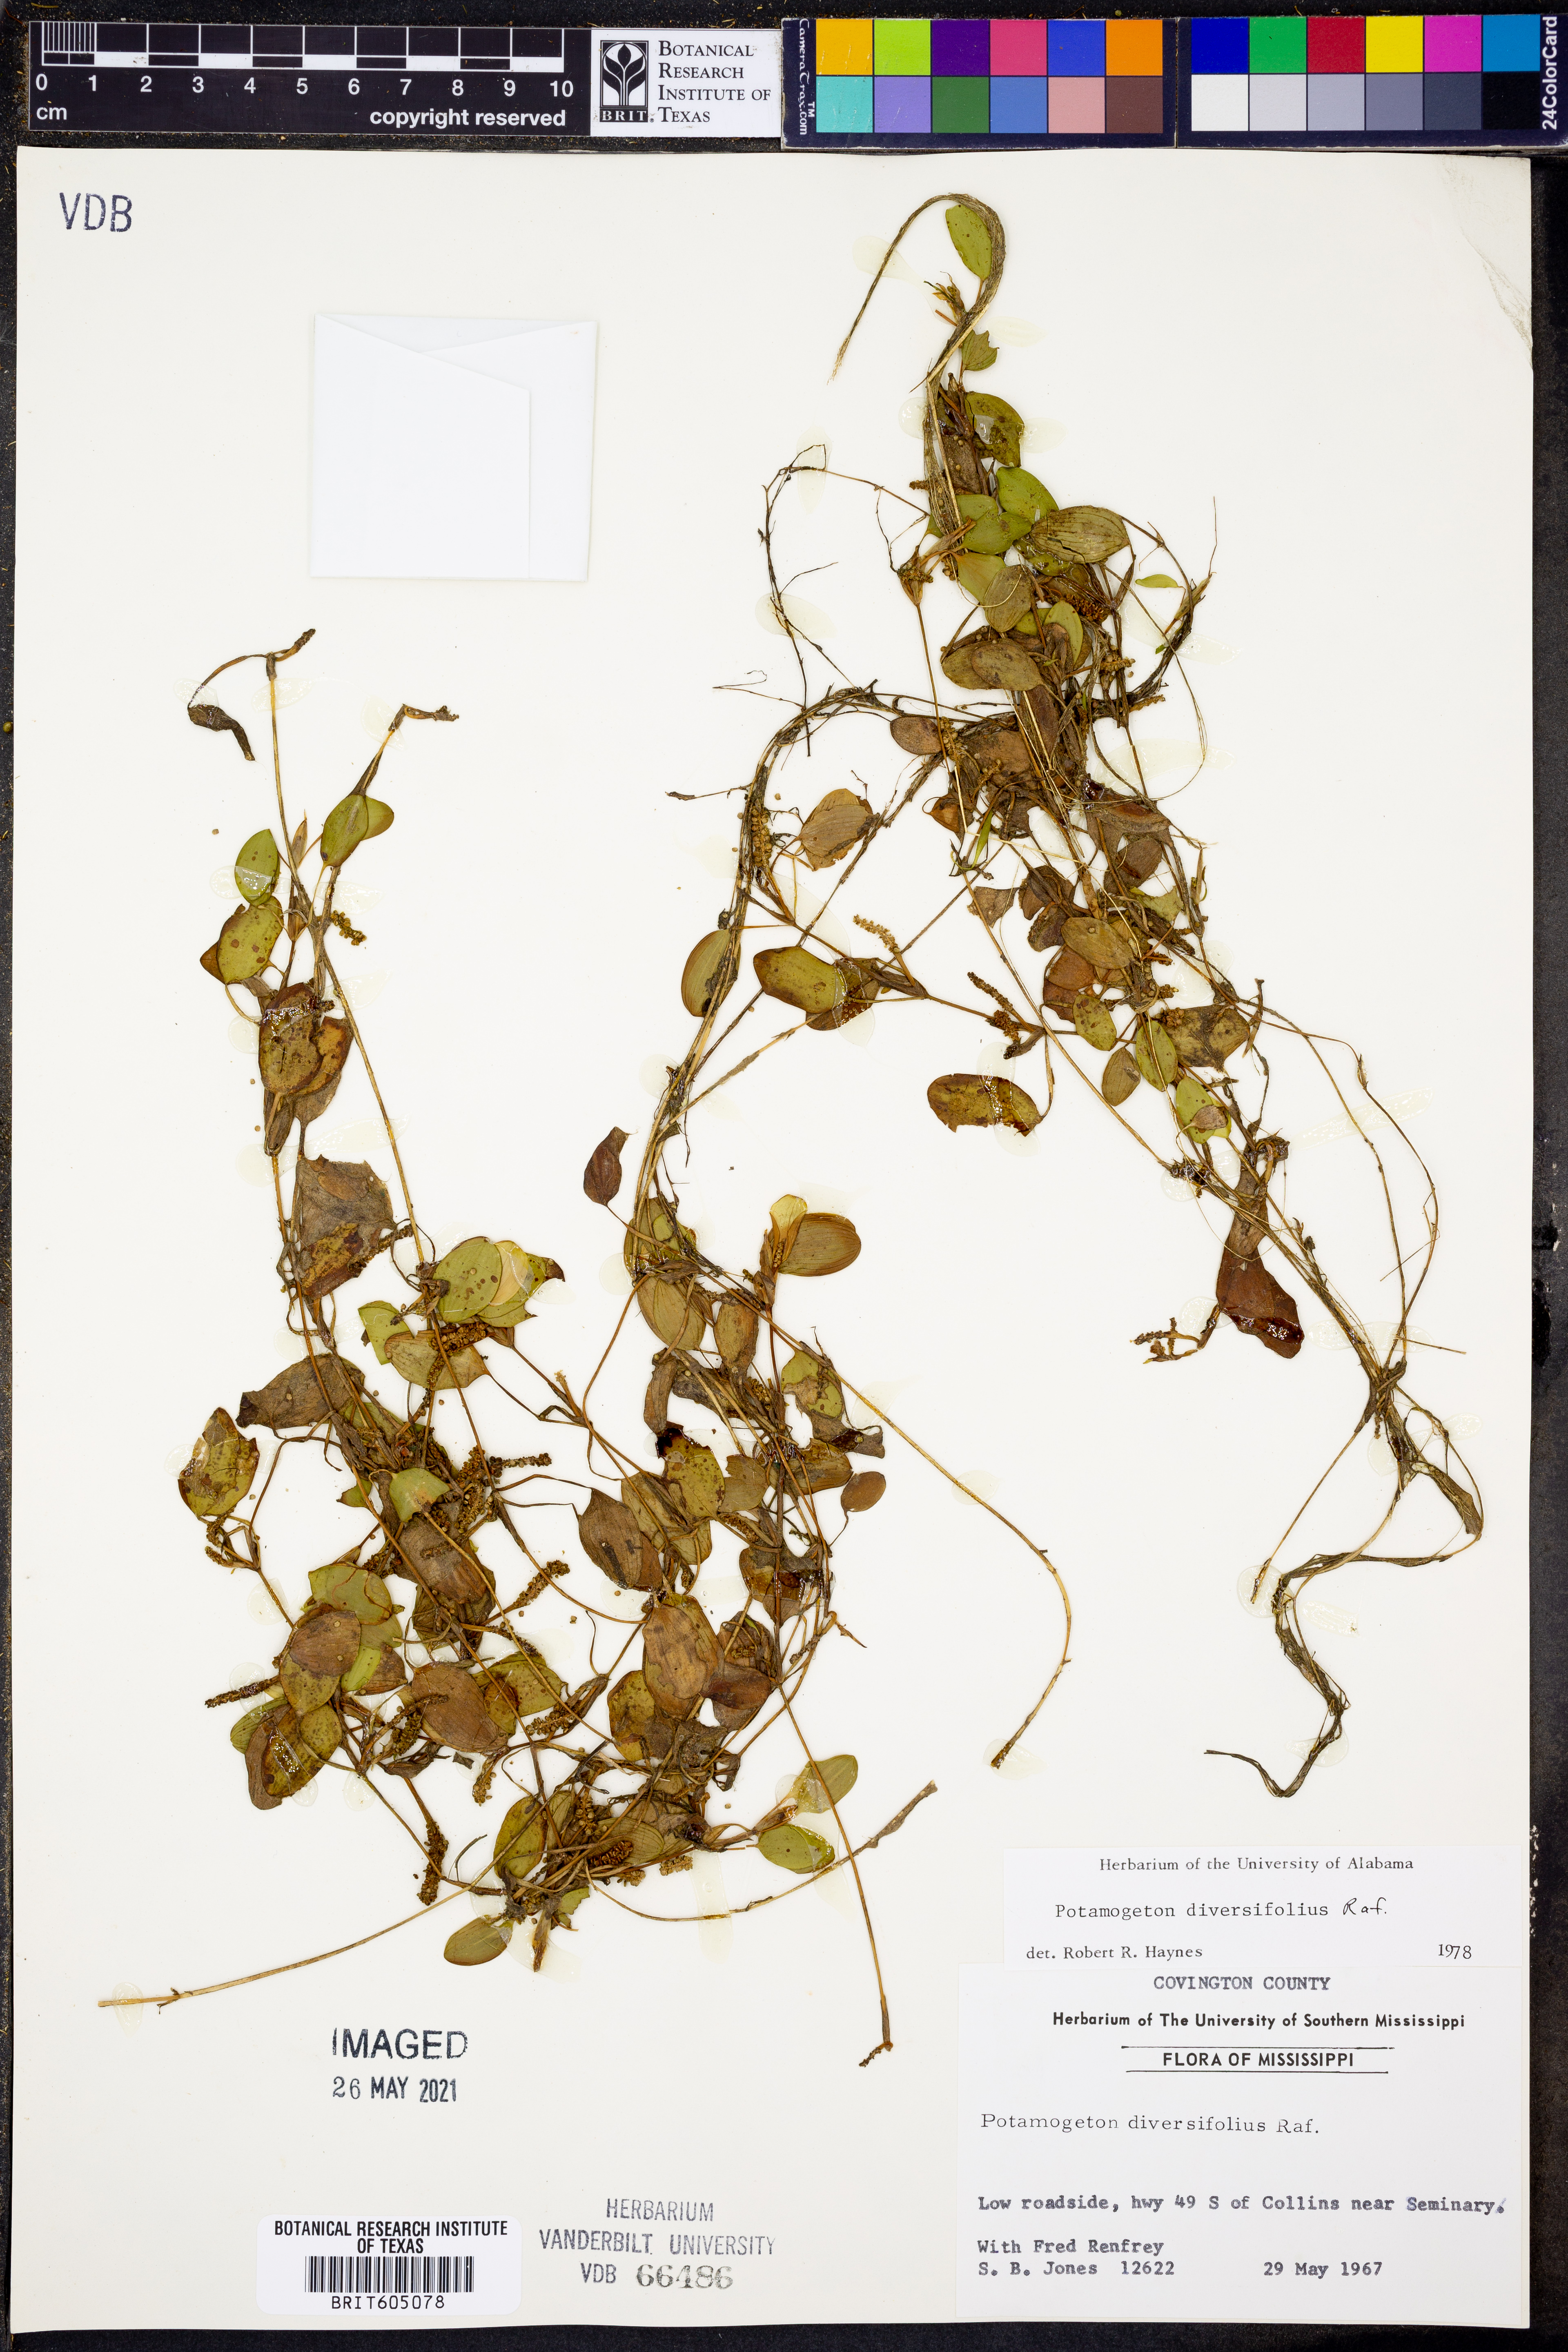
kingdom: Plantae
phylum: Tracheophyta
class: Liliopsida
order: Alismatales
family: Potamogetonaceae
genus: Potamogeton
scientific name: Potamogeton diversifolius
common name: Water-thread pondweed
